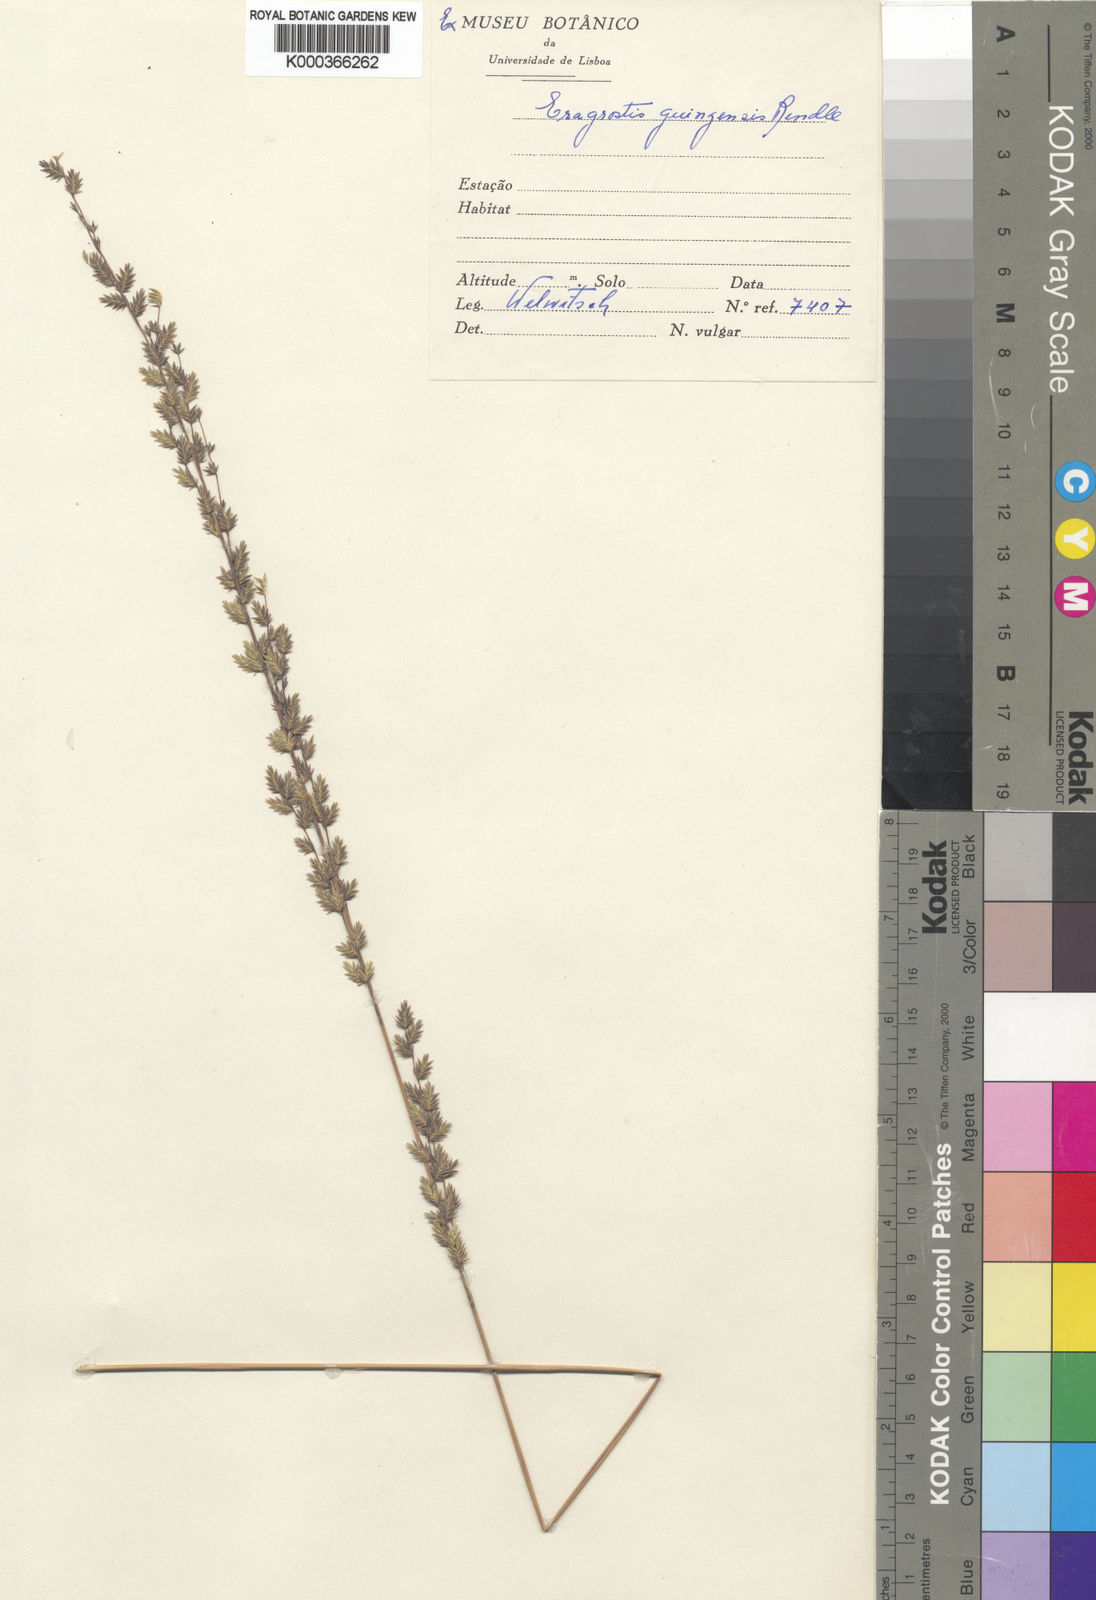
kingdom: Plantae
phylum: Tracheophyta
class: Liliopsida
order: Poales
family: Poaceae
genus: Eragrostis
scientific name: Eragrostis nindensis
